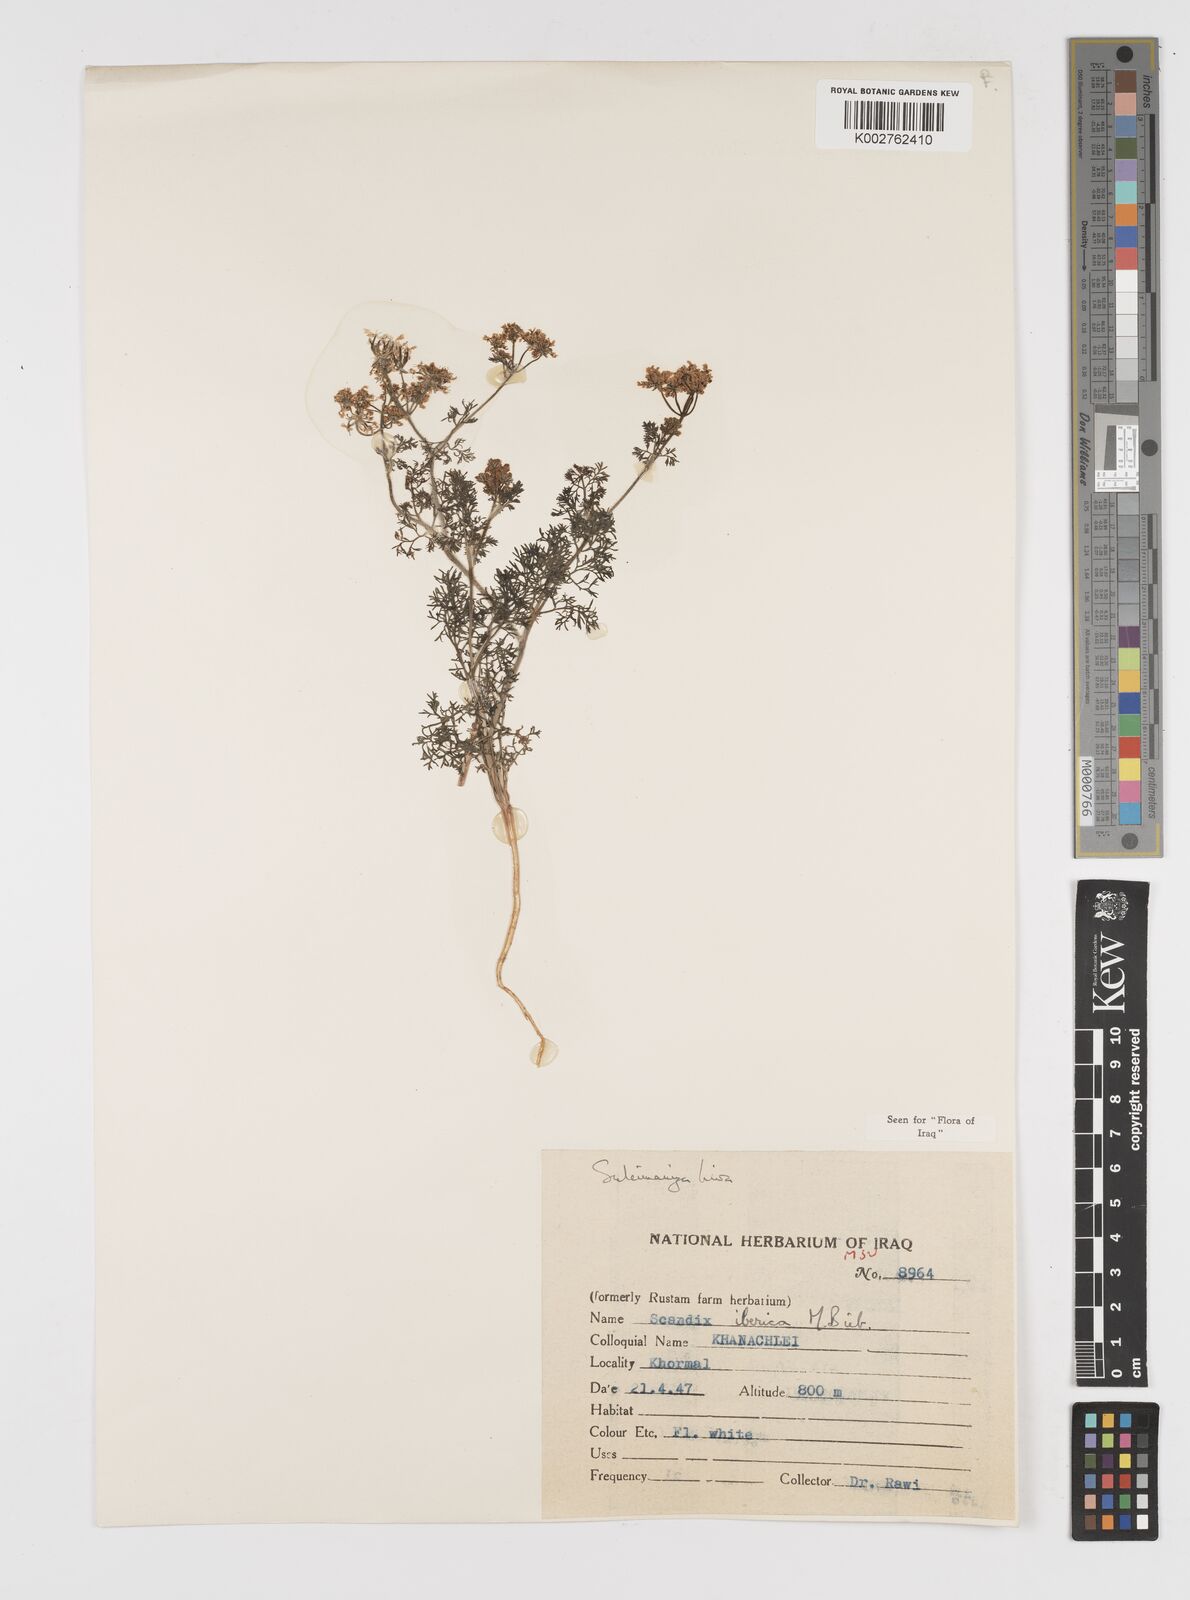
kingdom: Plantae
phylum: Tracheophyta
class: Magnoliopsida
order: Apiales
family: Apiaceae
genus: Scandix
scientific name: Scandix iberica
